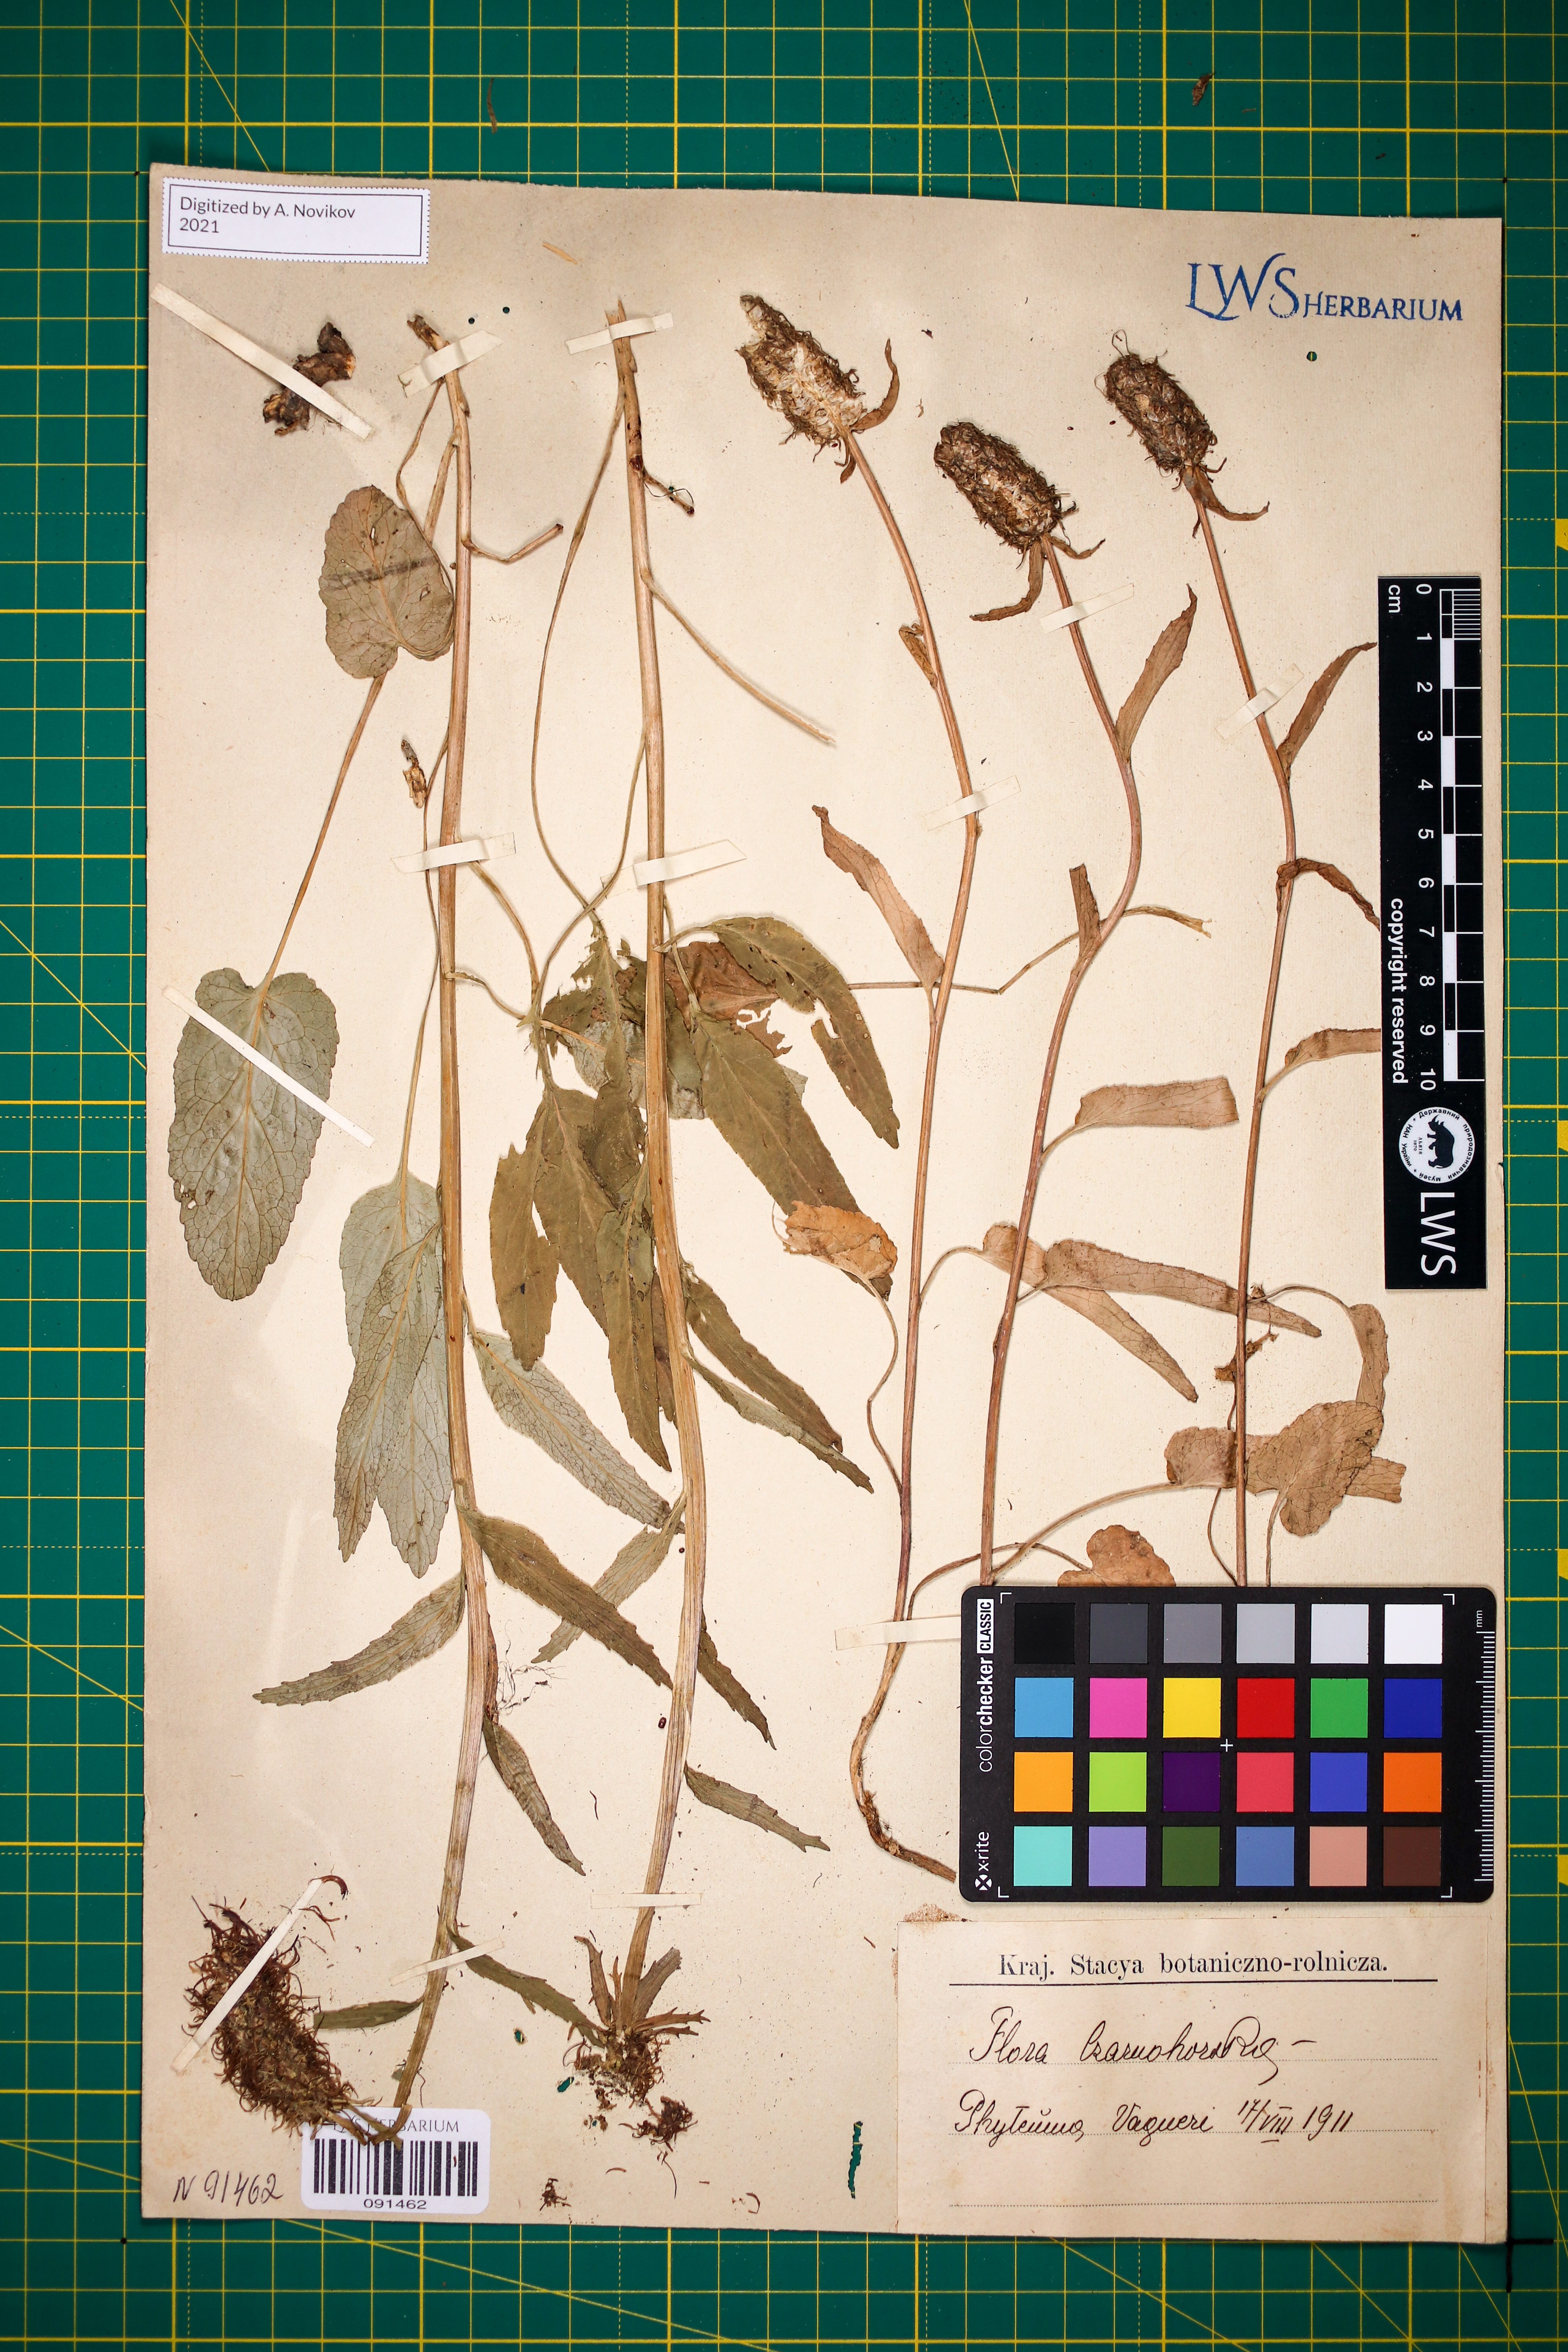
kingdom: Plantae
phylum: Tracheophyta
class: Magnoliopsida
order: Asterales
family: Campanulaceae
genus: Phyteuma
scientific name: Phyteuma vagneri
